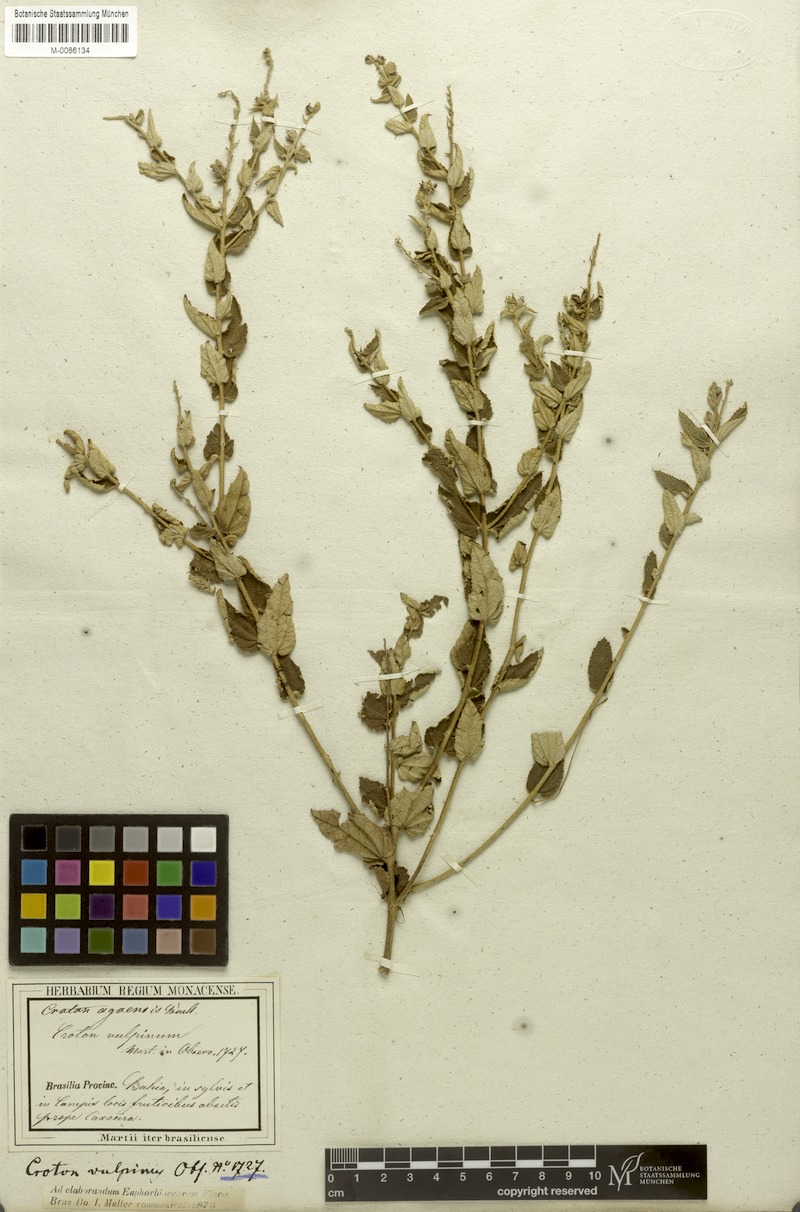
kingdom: Plantae
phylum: Tracheophyta
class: Magnoliopsida
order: Malpighiales
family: Euphorbiaceae
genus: Croton
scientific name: Croton agoensis
